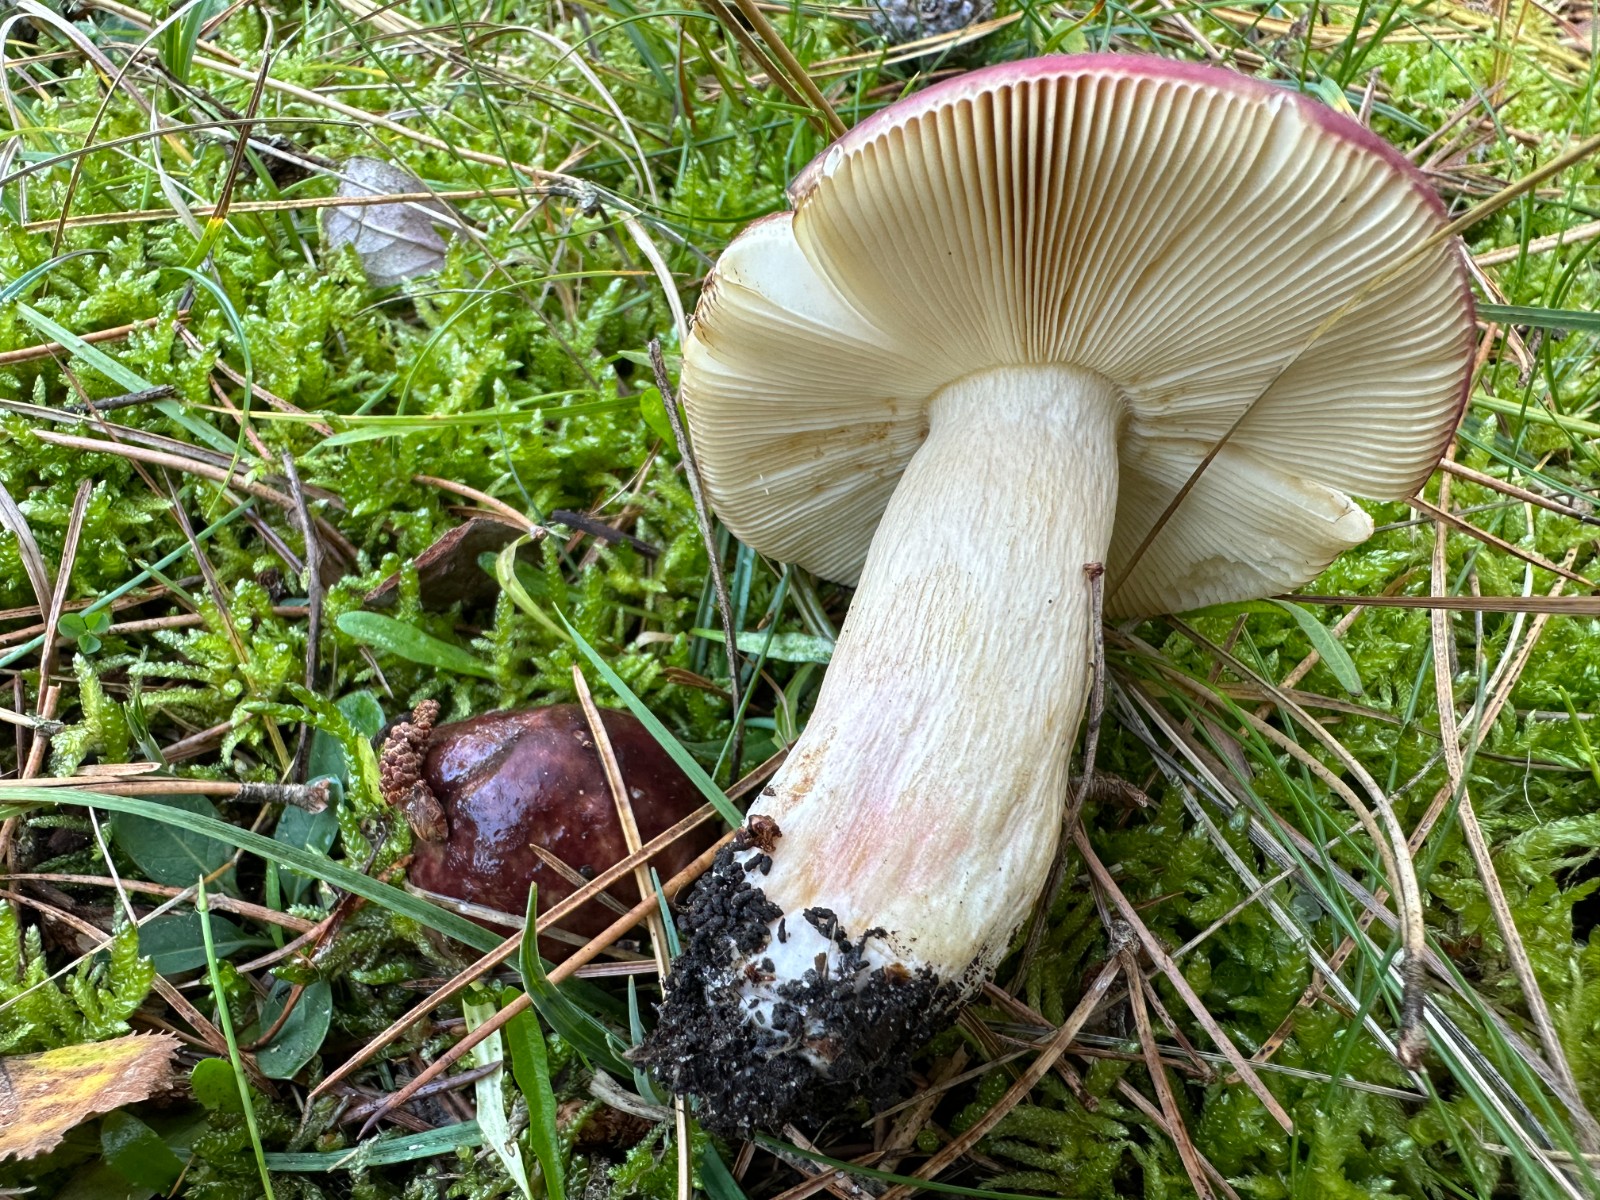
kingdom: Fungi
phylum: Basidiomycota
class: Agaricomycetes
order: Russulales
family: Russulaceae
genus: Russula
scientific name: Russula paludosa
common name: prægtig skørhat
